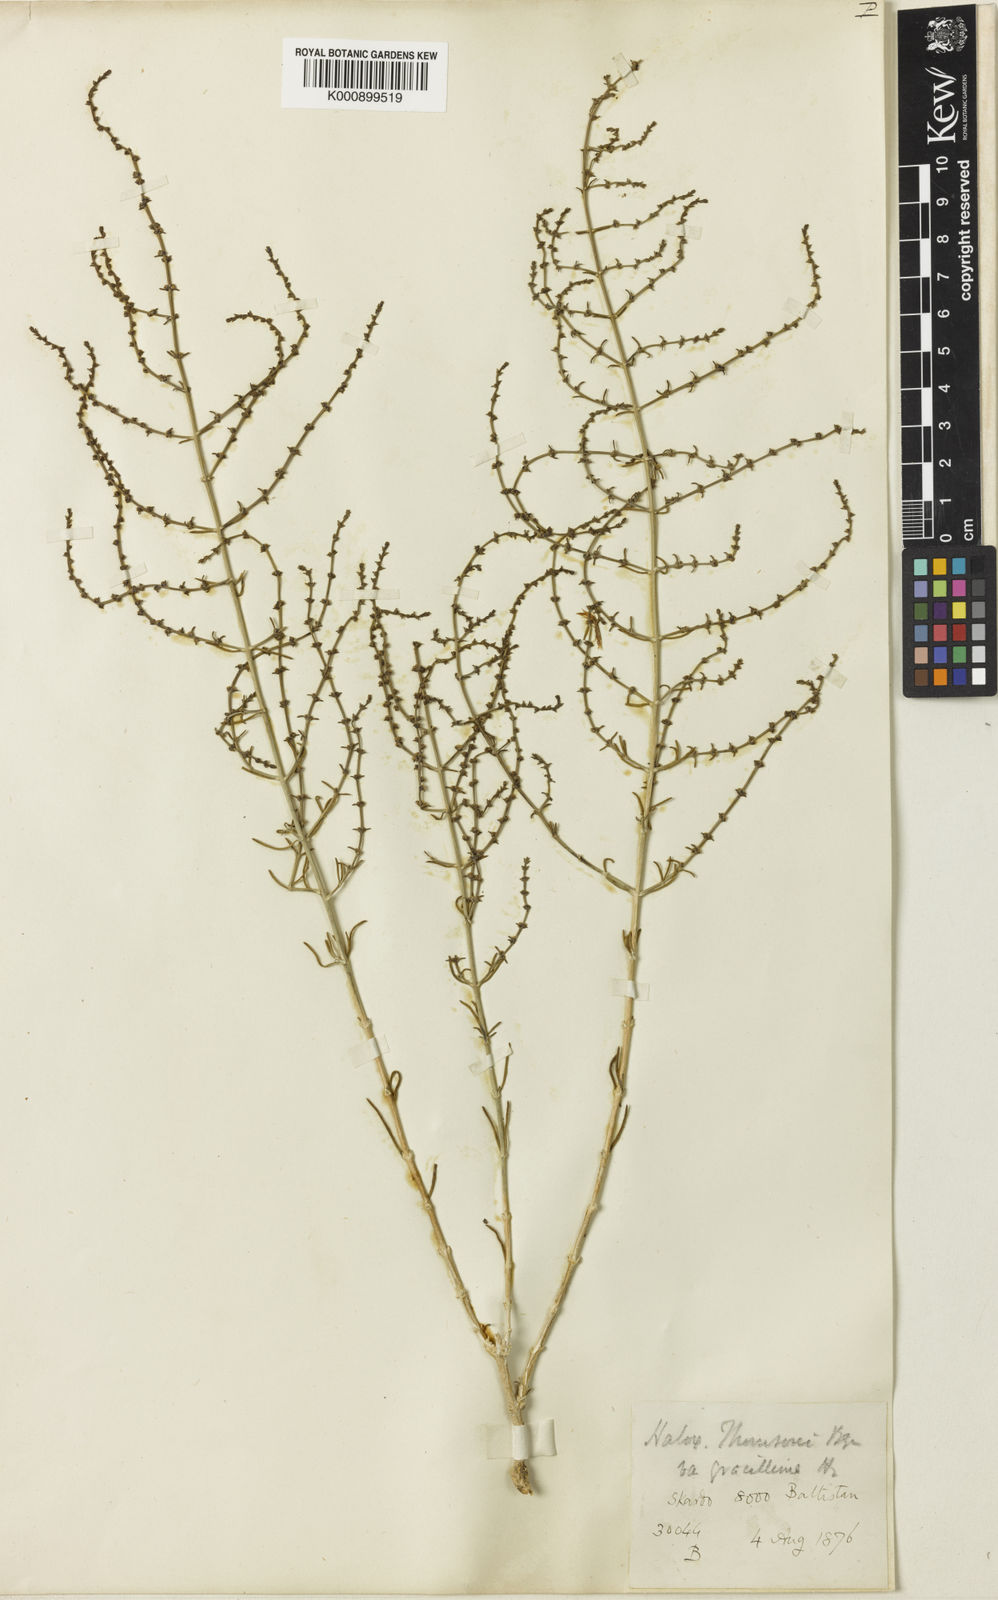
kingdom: Plantae
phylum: Tracheophyta
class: Magnoliopsida
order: Caryophyllales
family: Amaranthaceae
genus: Haloxylon
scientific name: Haloxylon thomsonii
